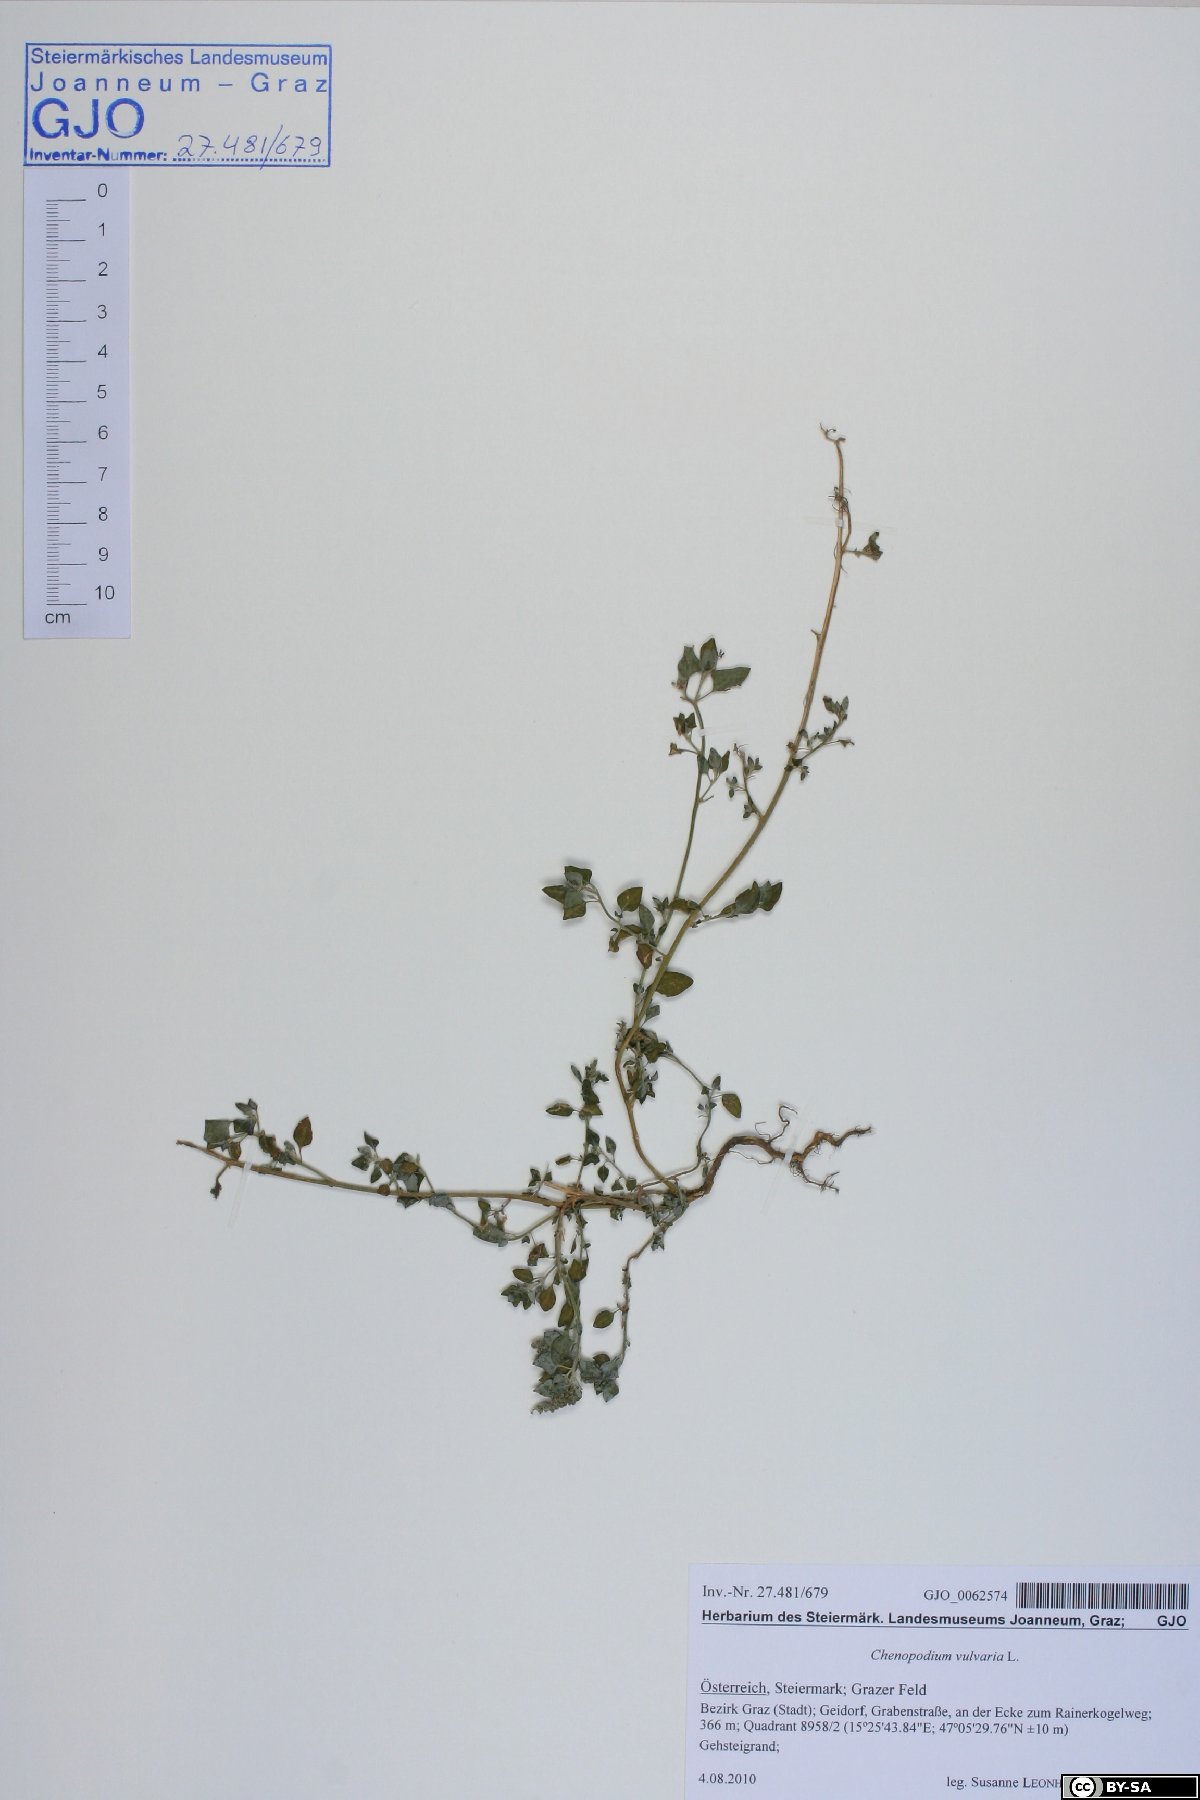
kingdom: Plantae
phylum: Tracheophyta
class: Magnoliopsida
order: Caryophyllales
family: Amaranthaceae
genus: Chenopodium
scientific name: Chenopodium vulvaria
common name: Stinking goosefoot
